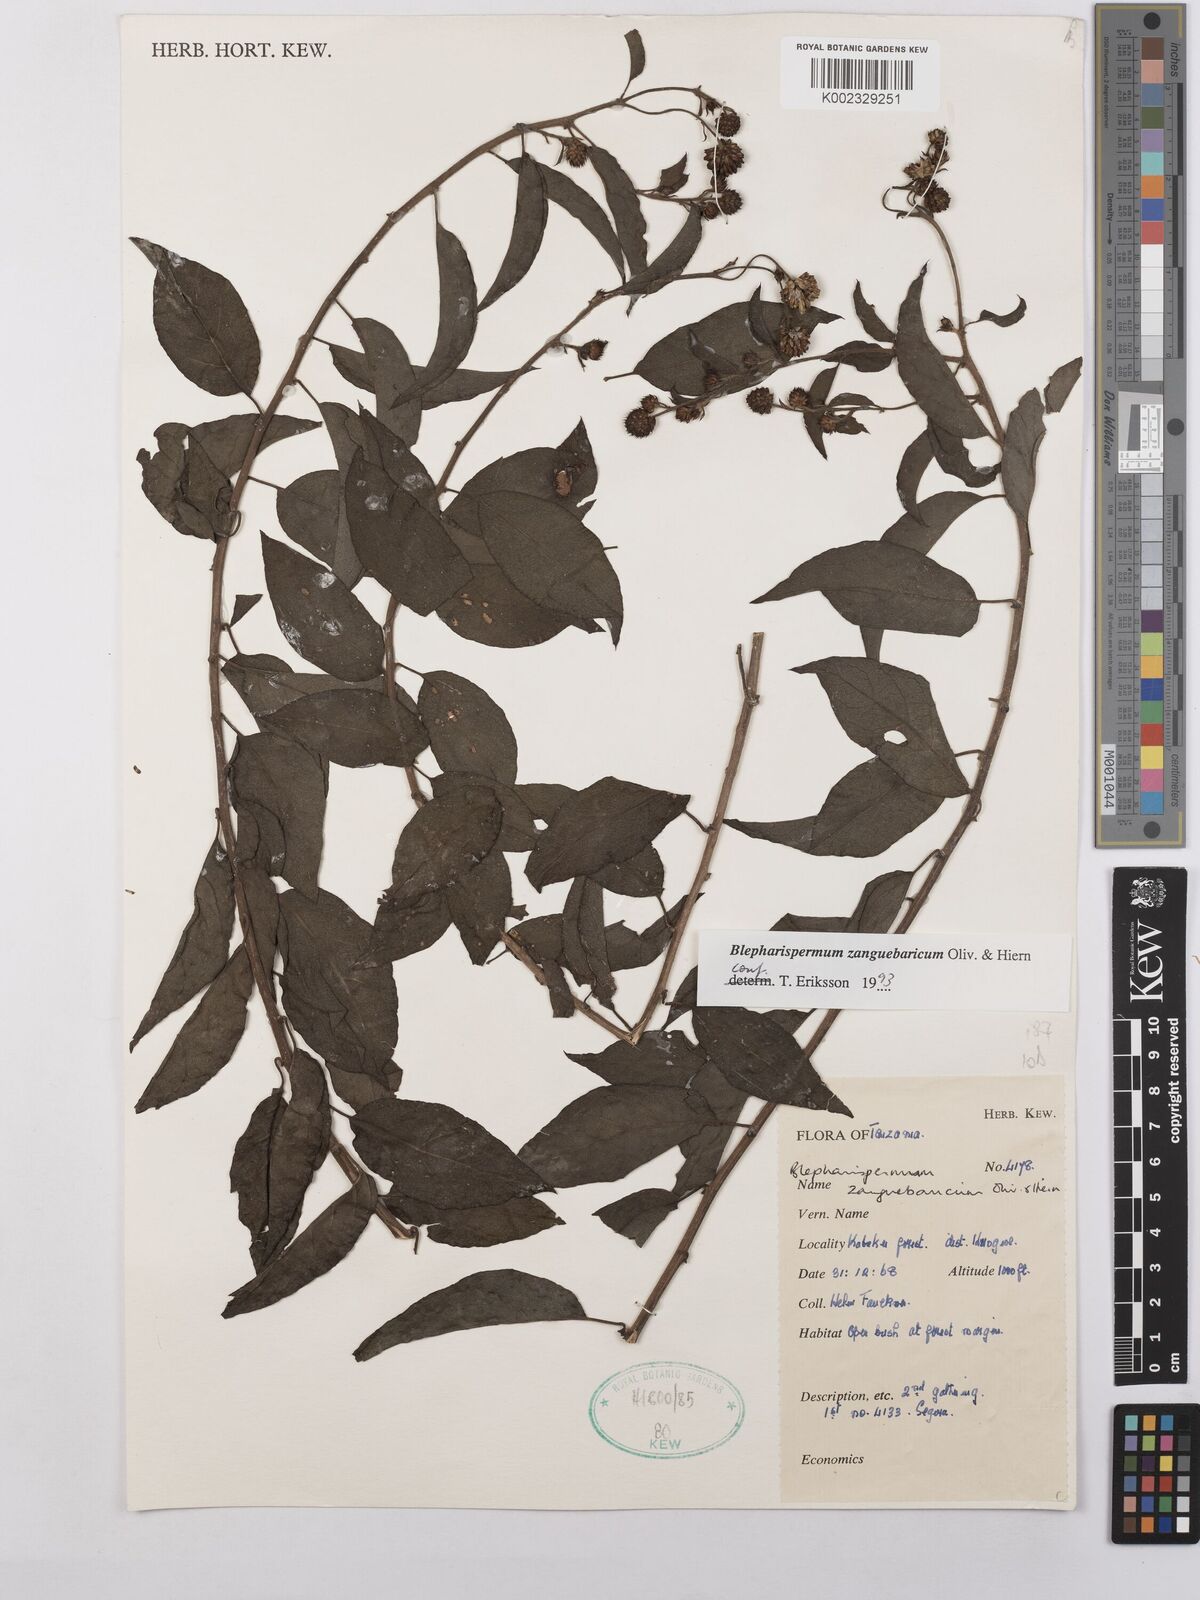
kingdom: Plantae
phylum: Tracheophyta
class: Magnoliopsida
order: Asterales
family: Asteraceae
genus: Blepharispermum
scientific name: Blepharispermum zanguebaricum
